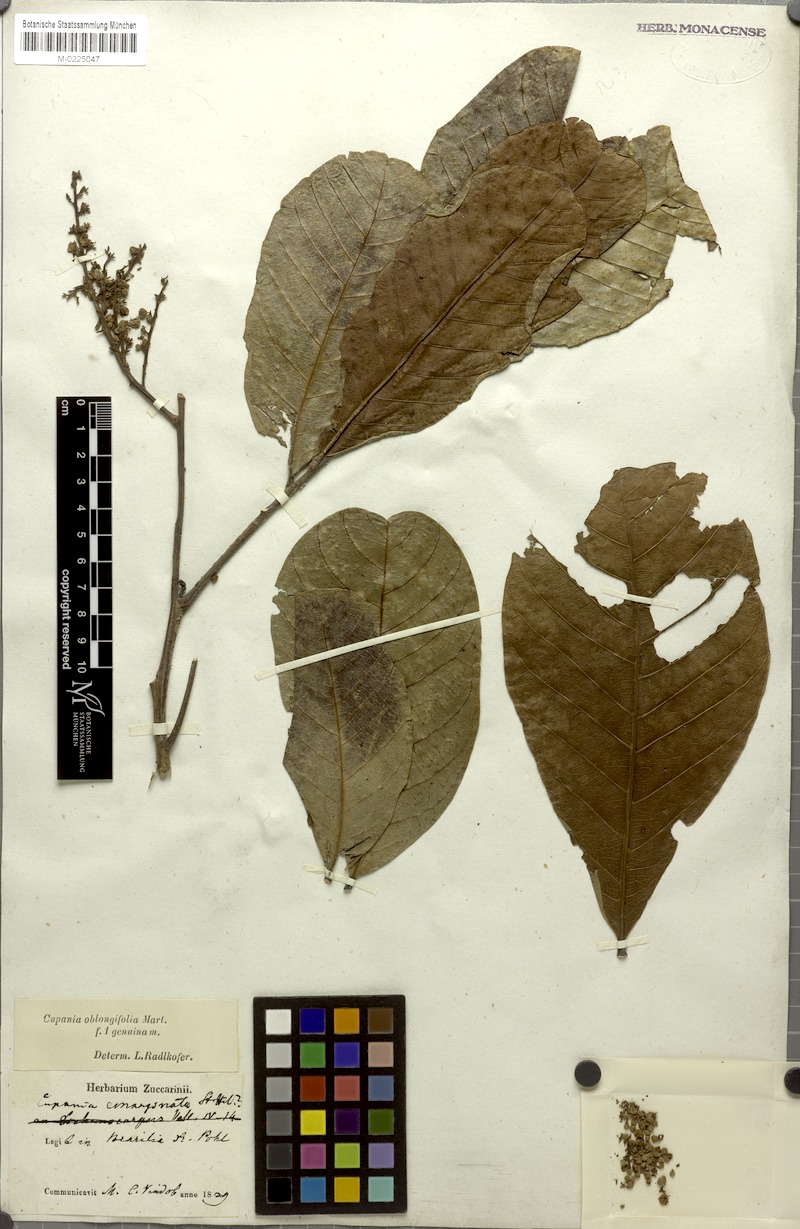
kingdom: Plantae
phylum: Tracheophyta
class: Magnoliopsida
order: Sapindales
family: Sapindaceae
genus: Cupania
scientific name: Cupania oblongifolia
